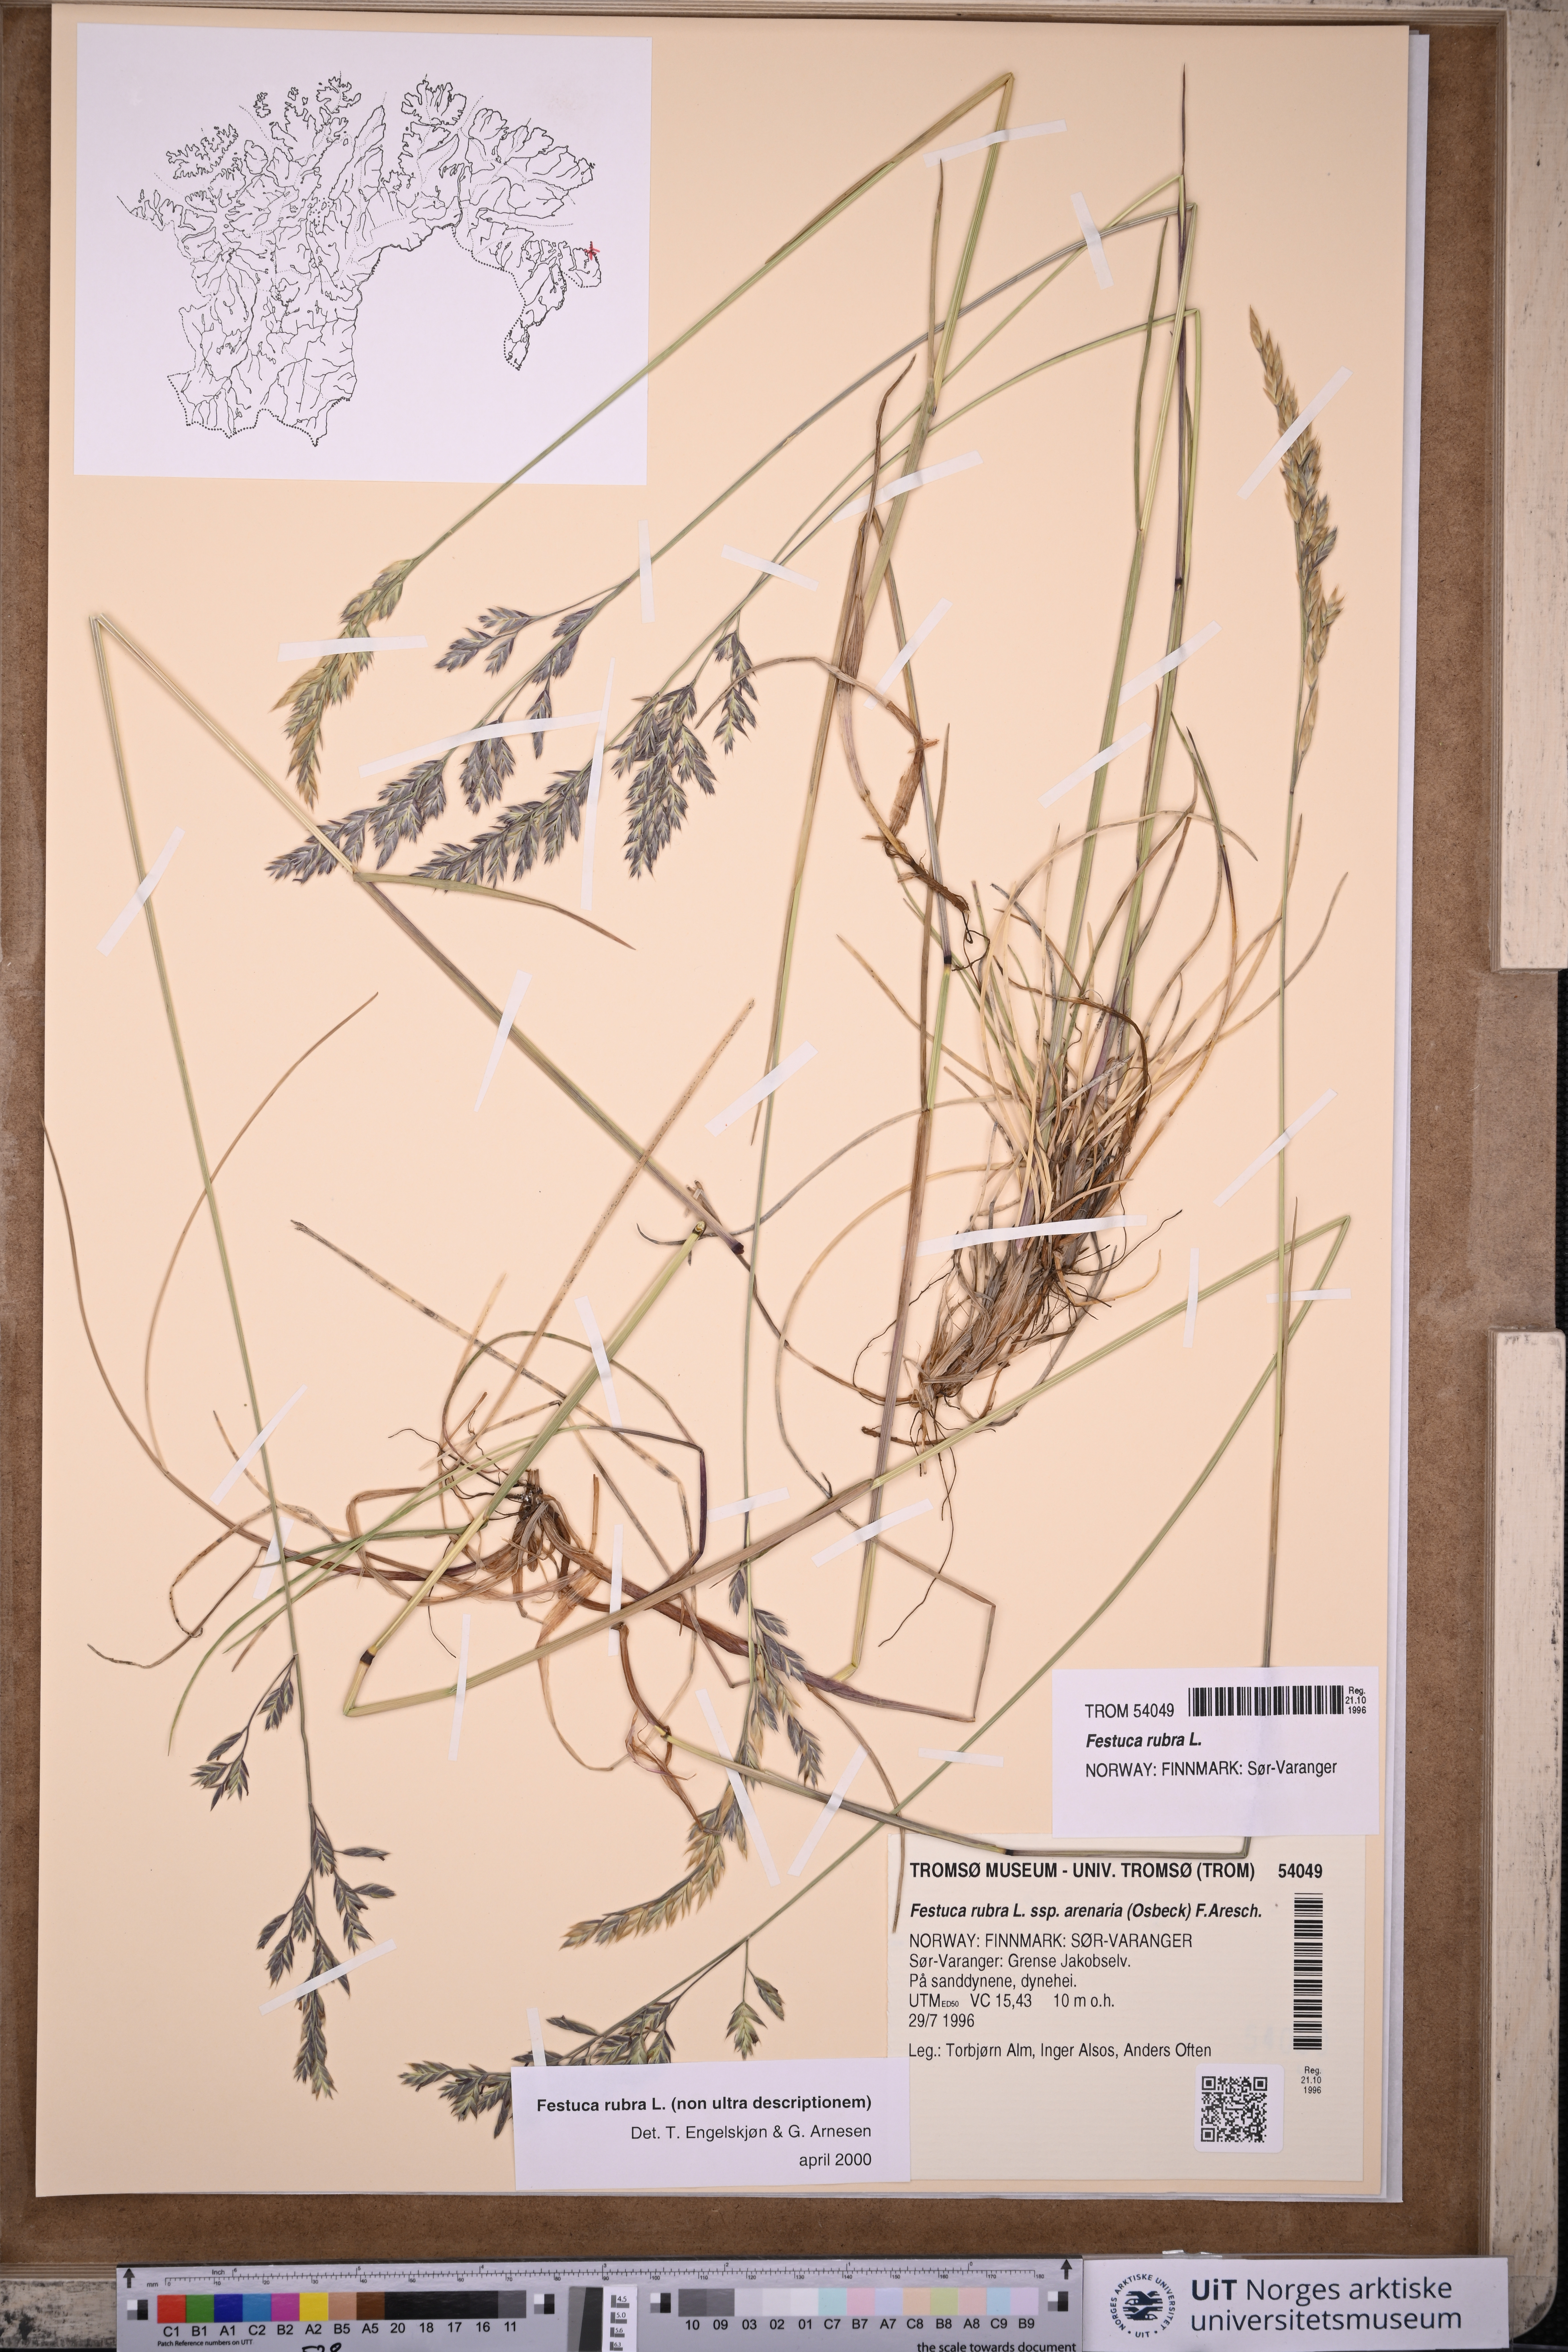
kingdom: Plantae
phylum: Tracheophyta
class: Liliopsida
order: Poales
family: Poaceae
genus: Festuca
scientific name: Festuca rubra
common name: Red fescue
